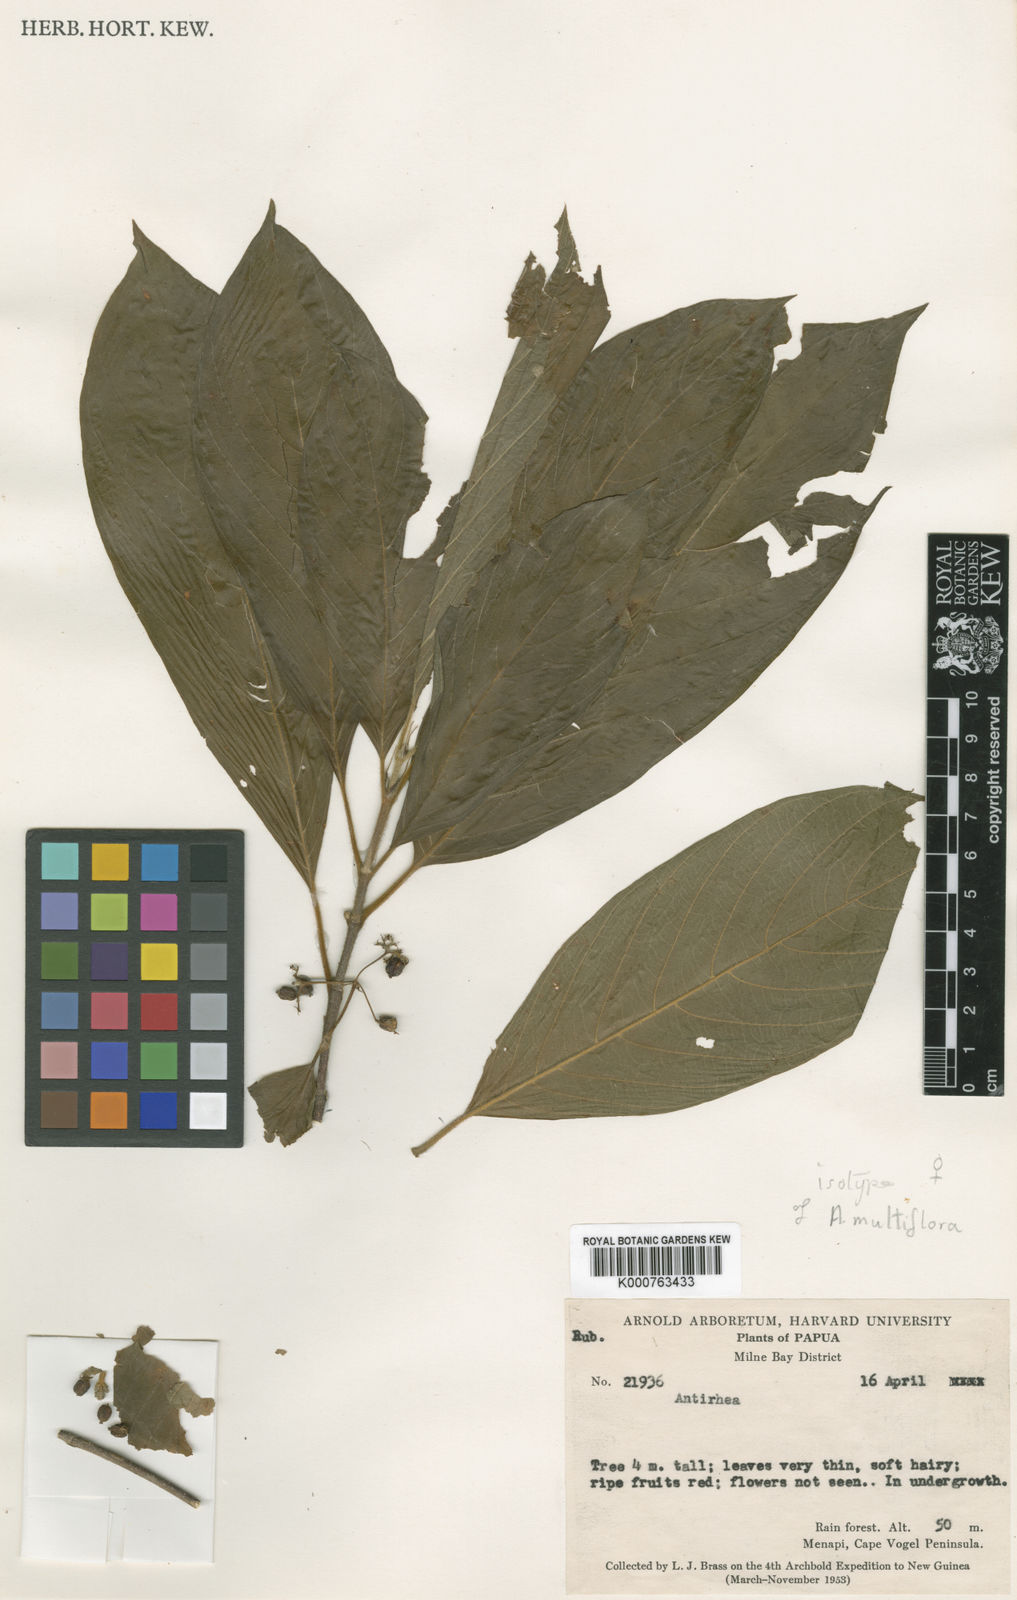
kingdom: Plantae
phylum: Tracheophyta
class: Magnoliopsida
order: Gentianales
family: Rubiaceae
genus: Guettardella
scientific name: Guettardella multiflora
